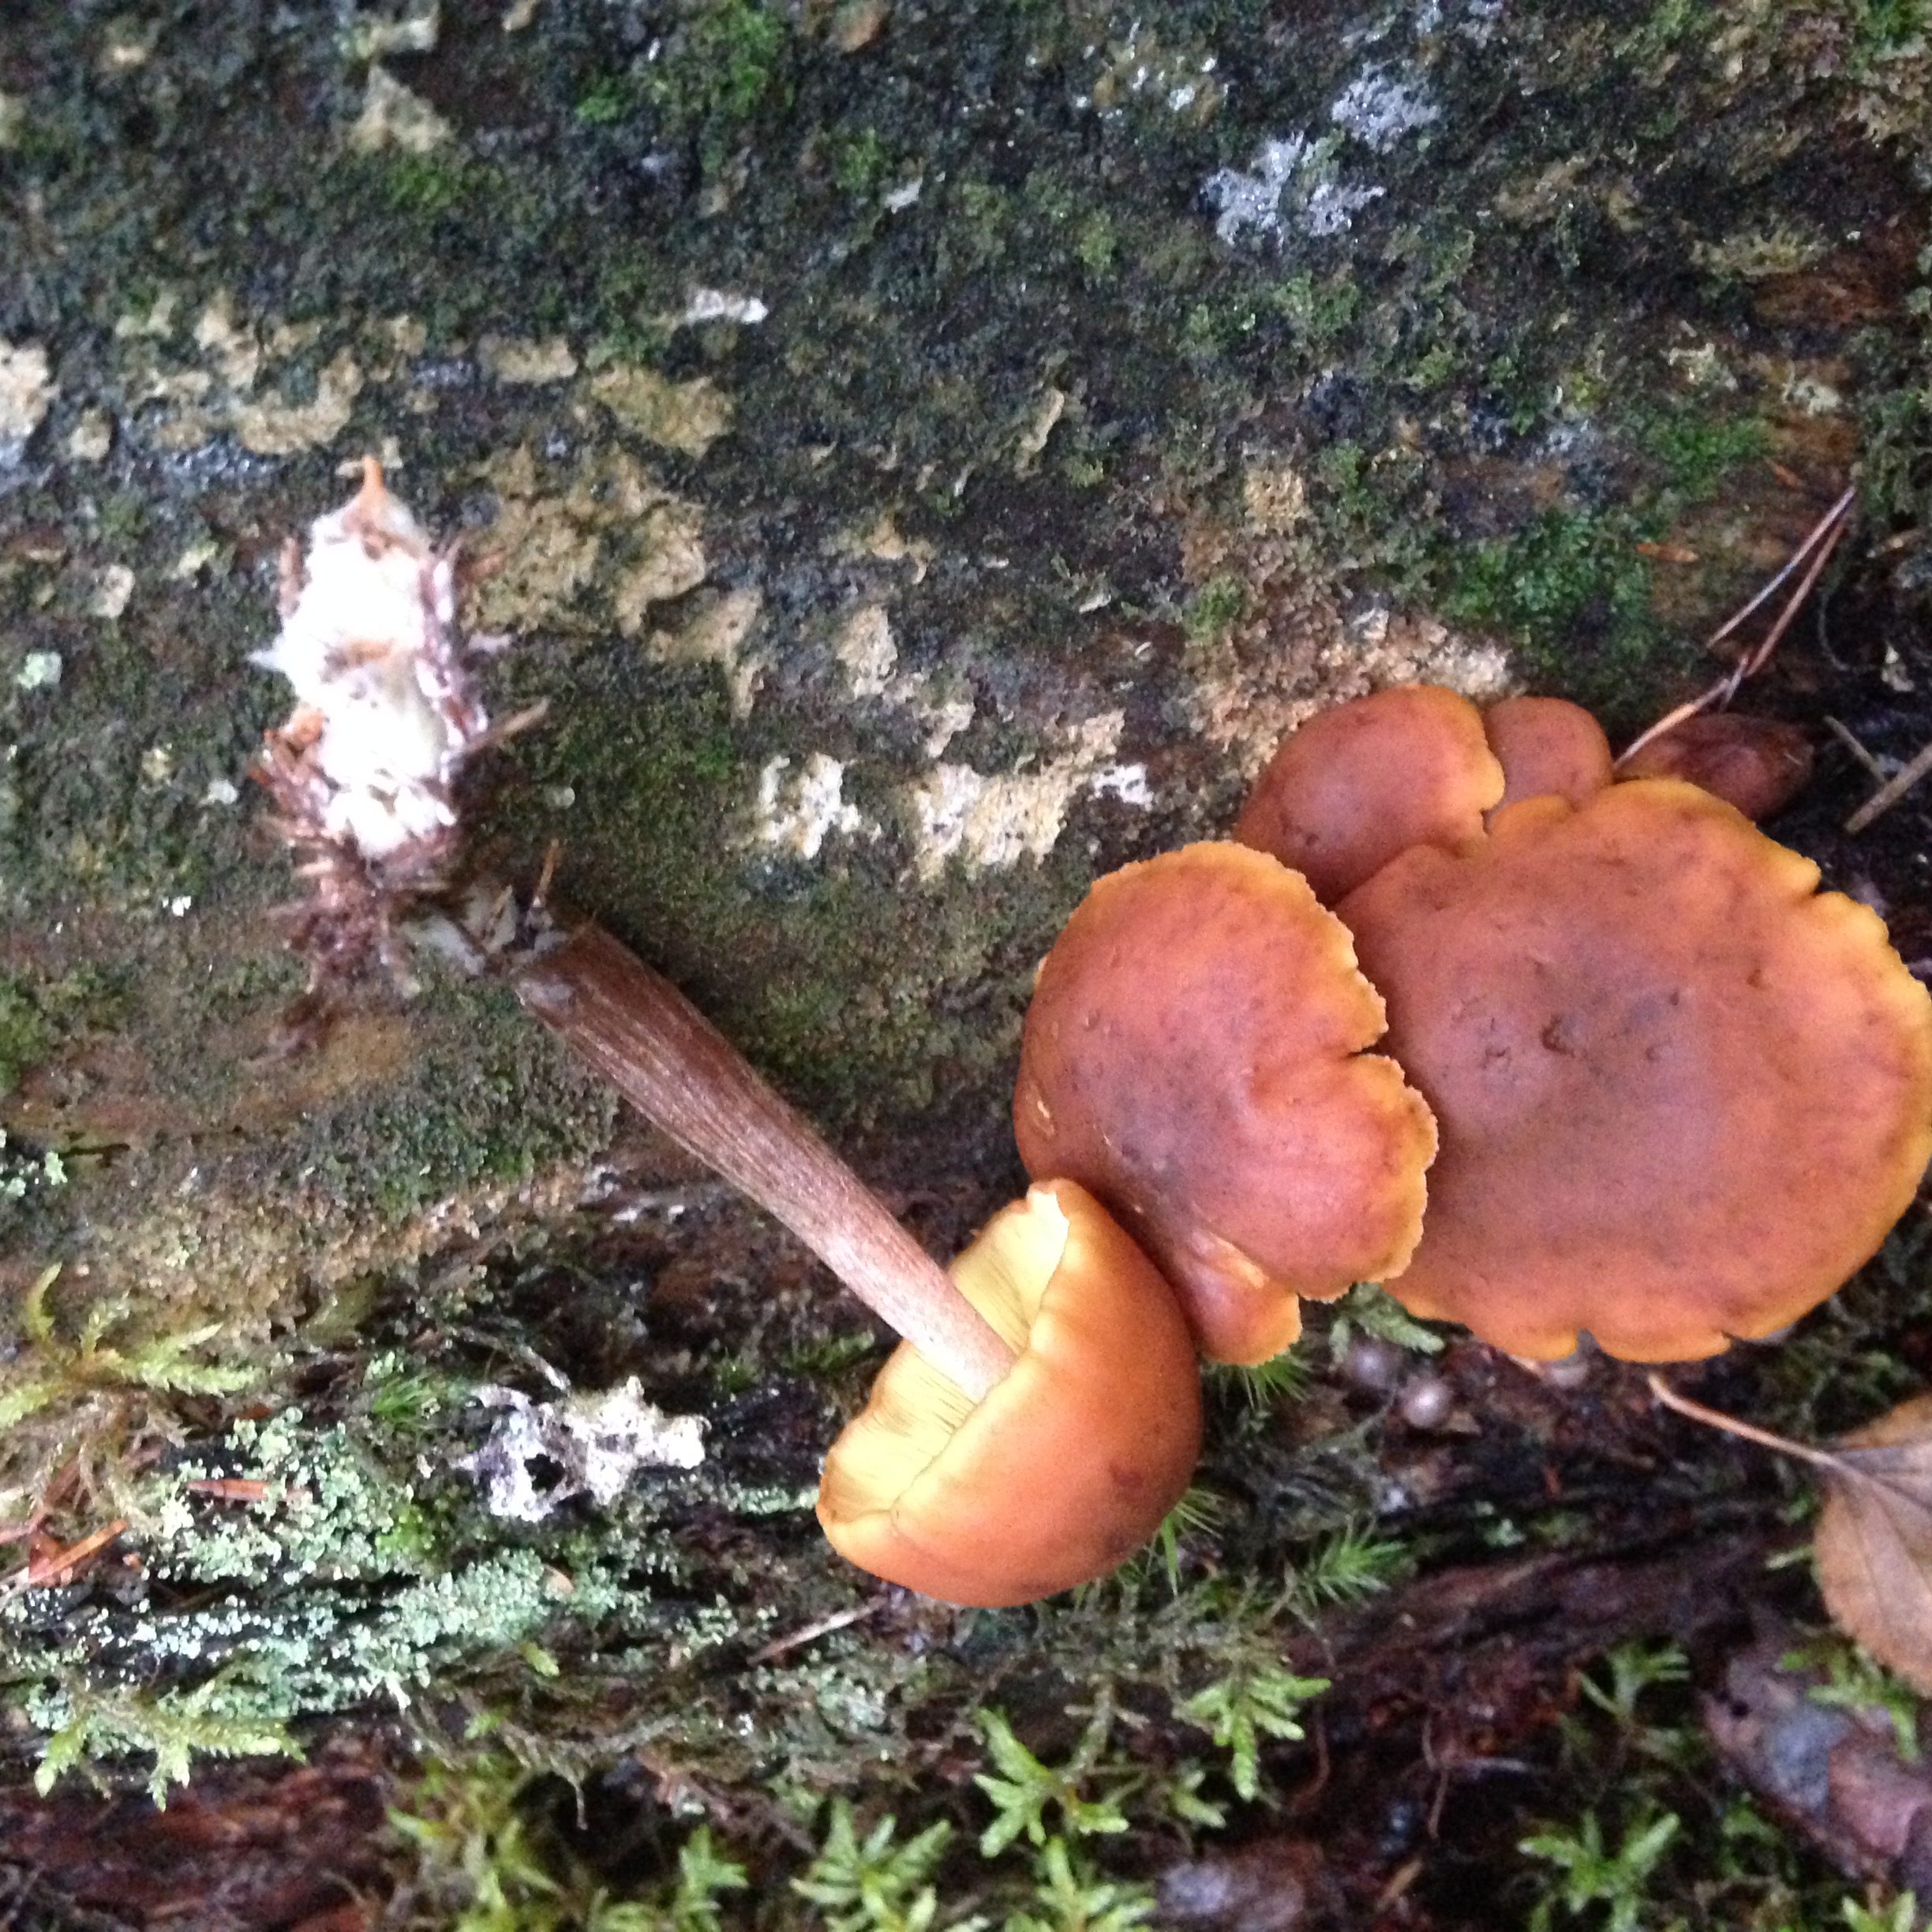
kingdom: Fungi
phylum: Basidiomycota
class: Agaricomycetes
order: Agaricales
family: Hymenogastraceae
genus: Gymnopilus
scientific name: Gymnopilus picreus
